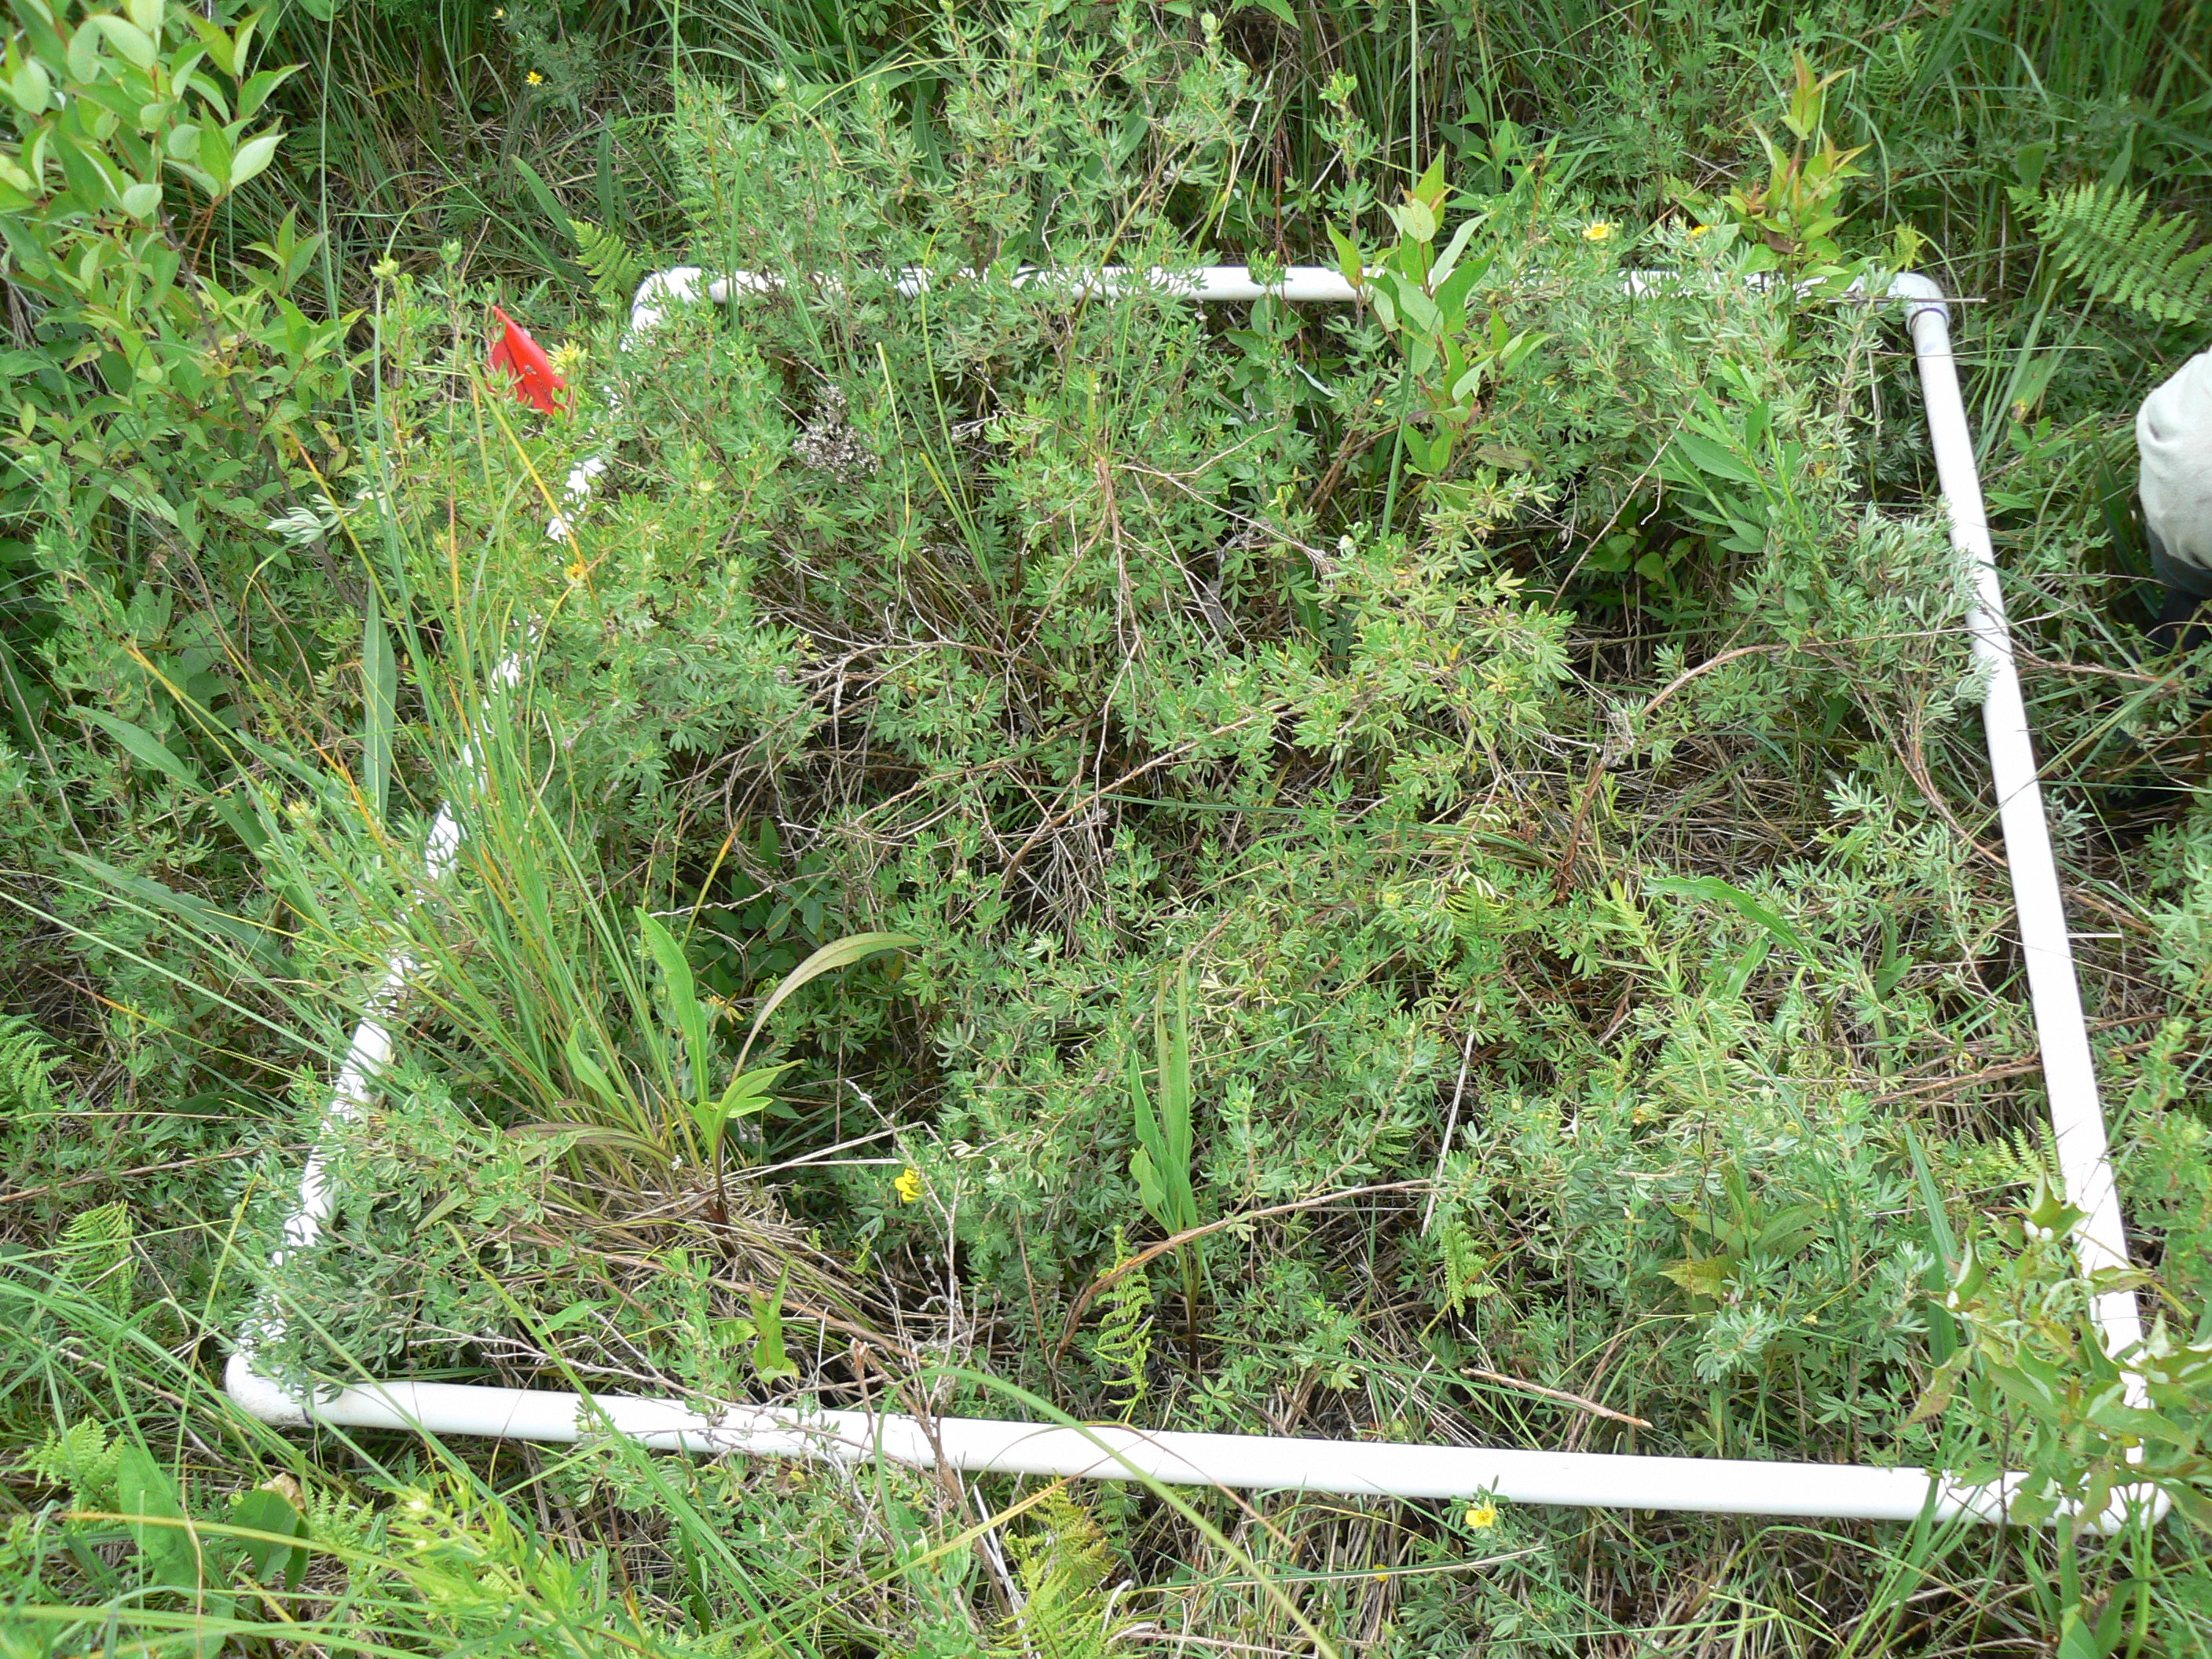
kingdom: Plantae
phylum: Tracheophyta
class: Magnoliopsida
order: Ranunculales
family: Ranunculaceae
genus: Thalictrum
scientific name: Thalictrum dasycarpum
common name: Purple meadow-rue
